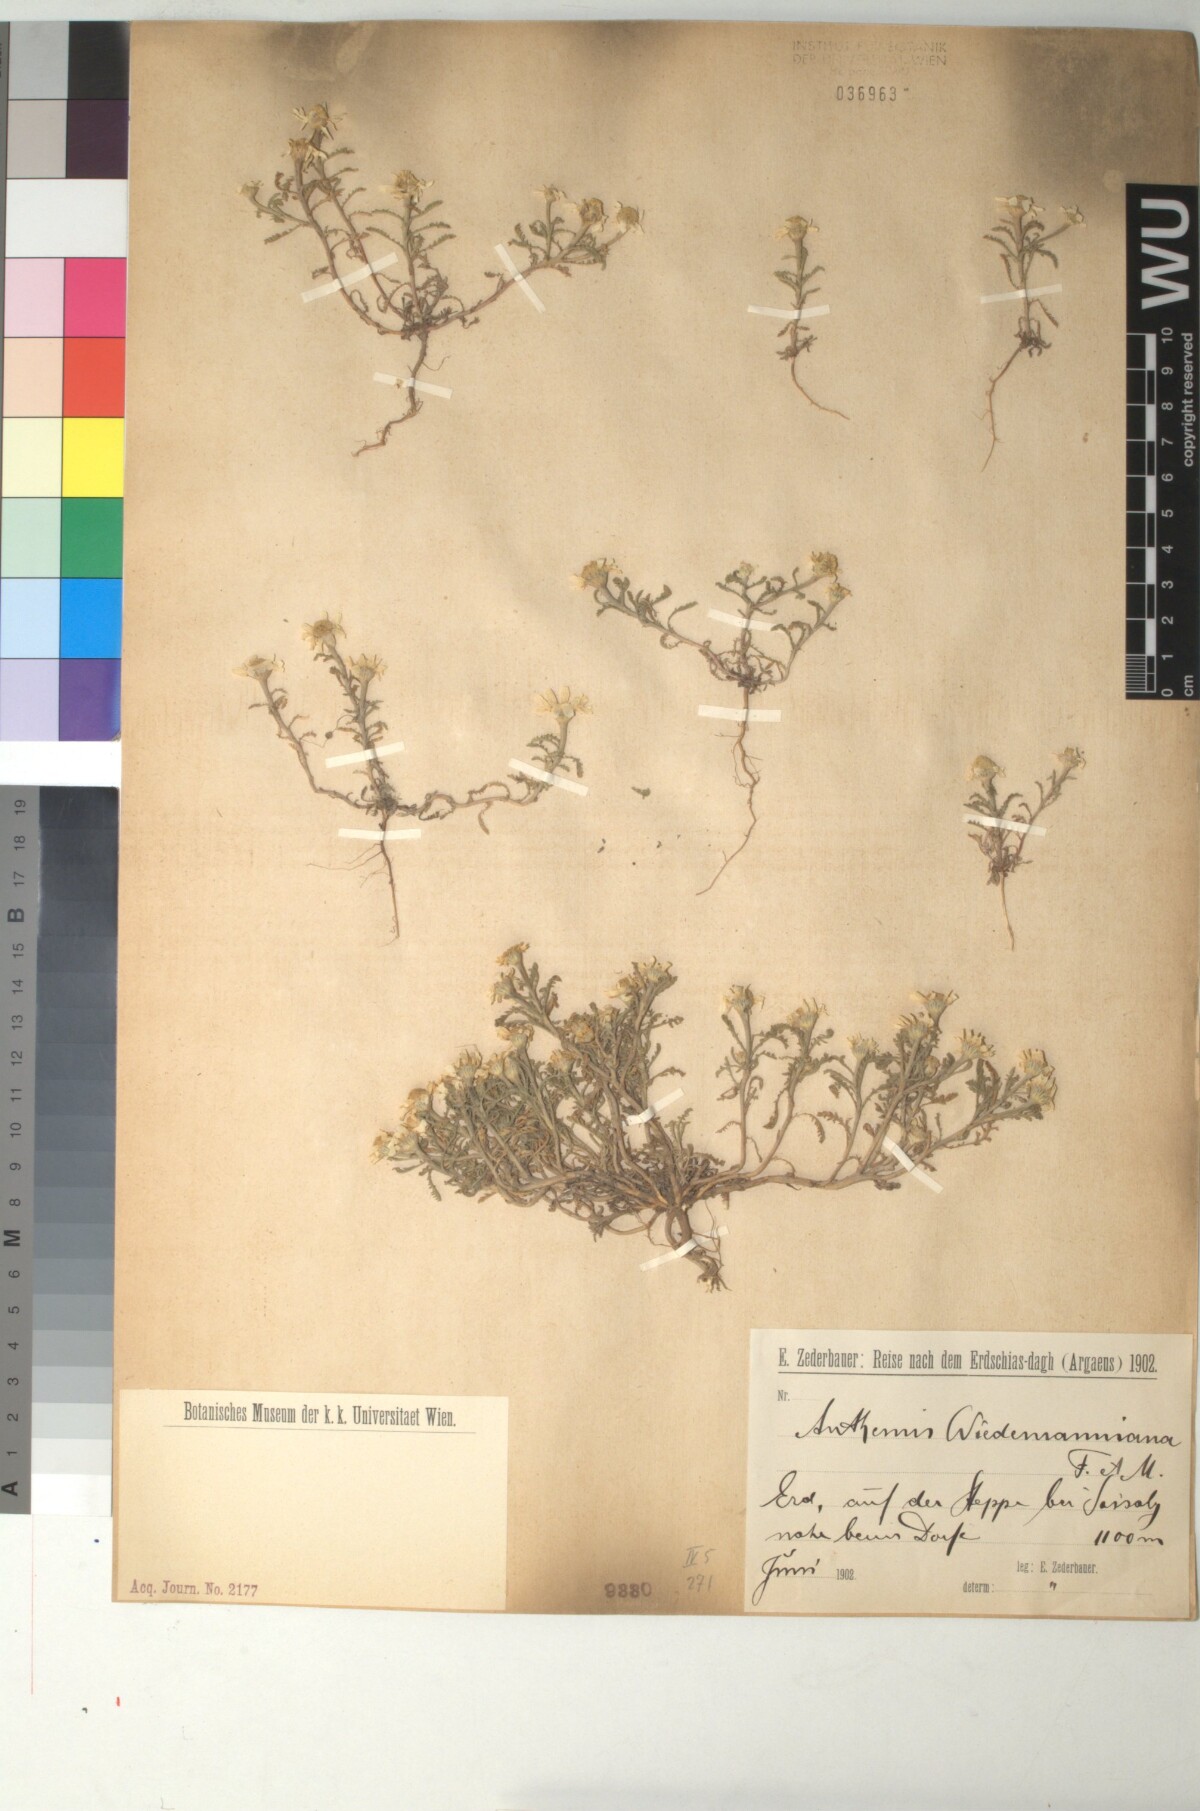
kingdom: Plantae
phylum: Tracheophyta
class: Magnoliopsida
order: Asterales
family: Asteraceae
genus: Cota
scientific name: Cota wiedemanniana
